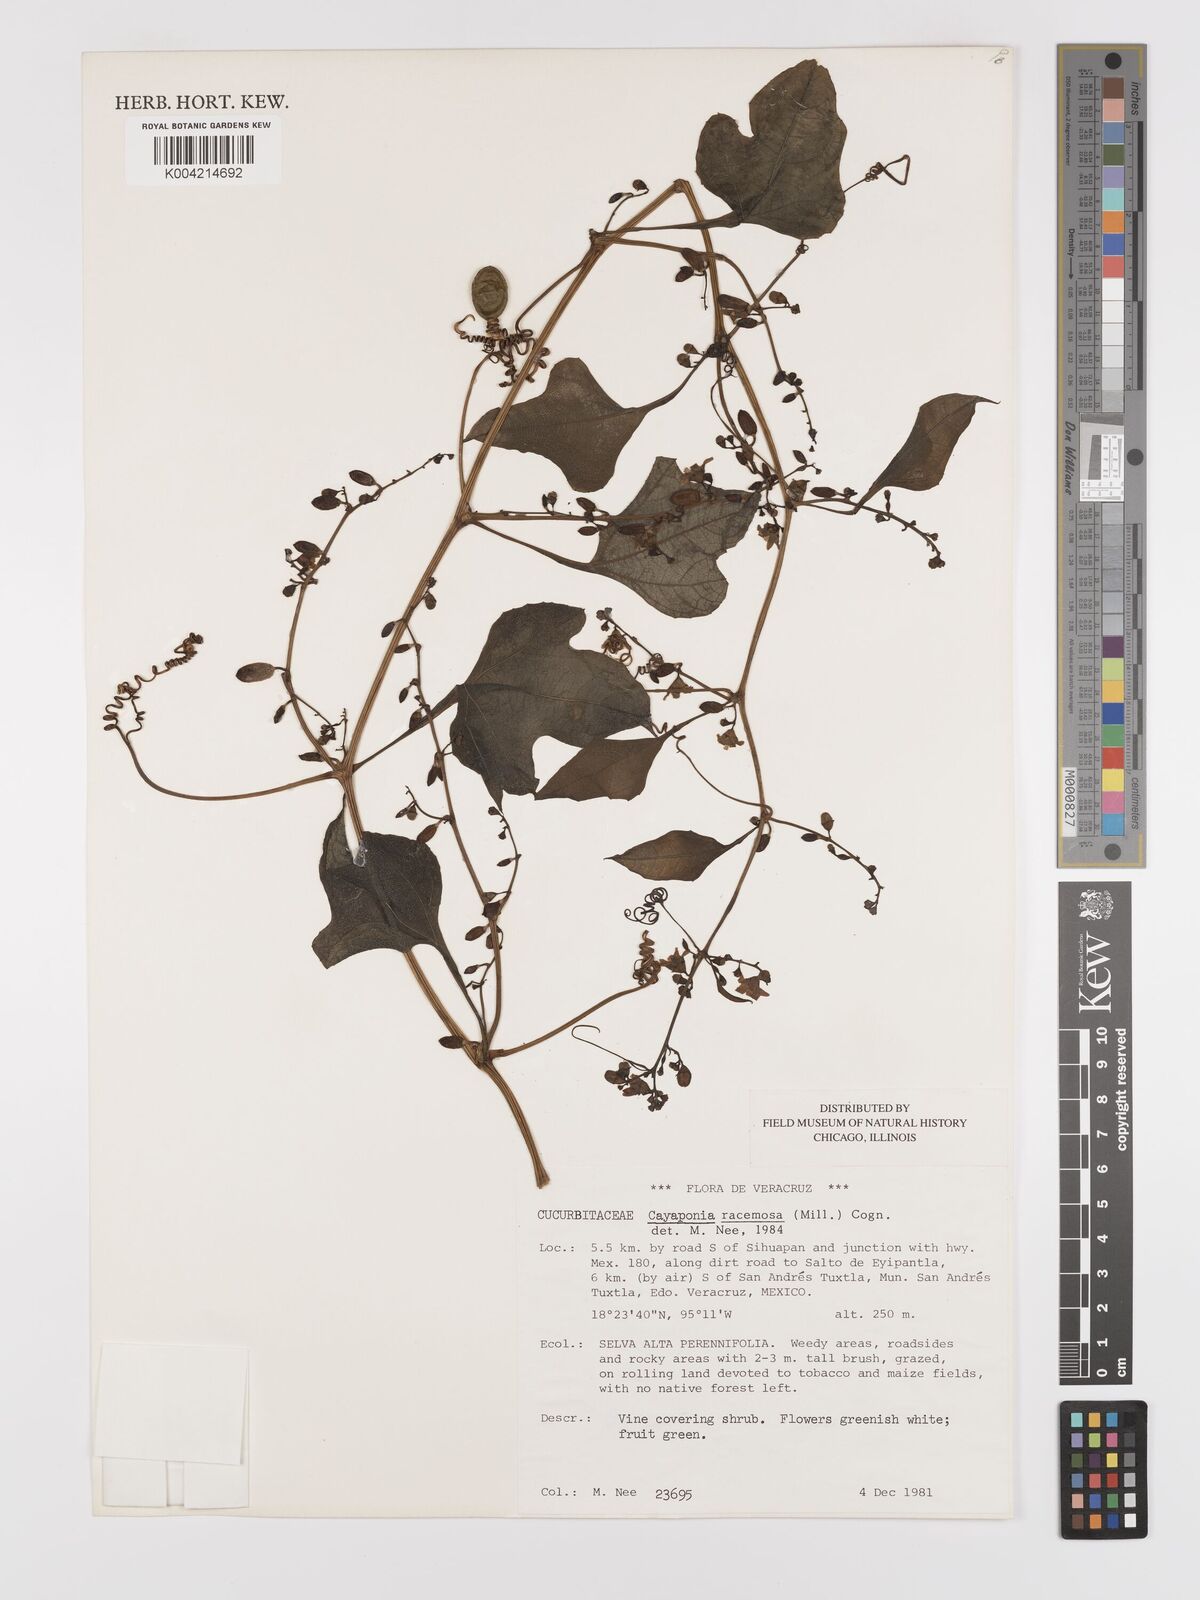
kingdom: Plantae
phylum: Tracheophyta
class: Magnoliopsida
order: Cucurbitales
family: Cucurbitaceae
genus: Cayaponia
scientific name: Cayaponia racemosa
